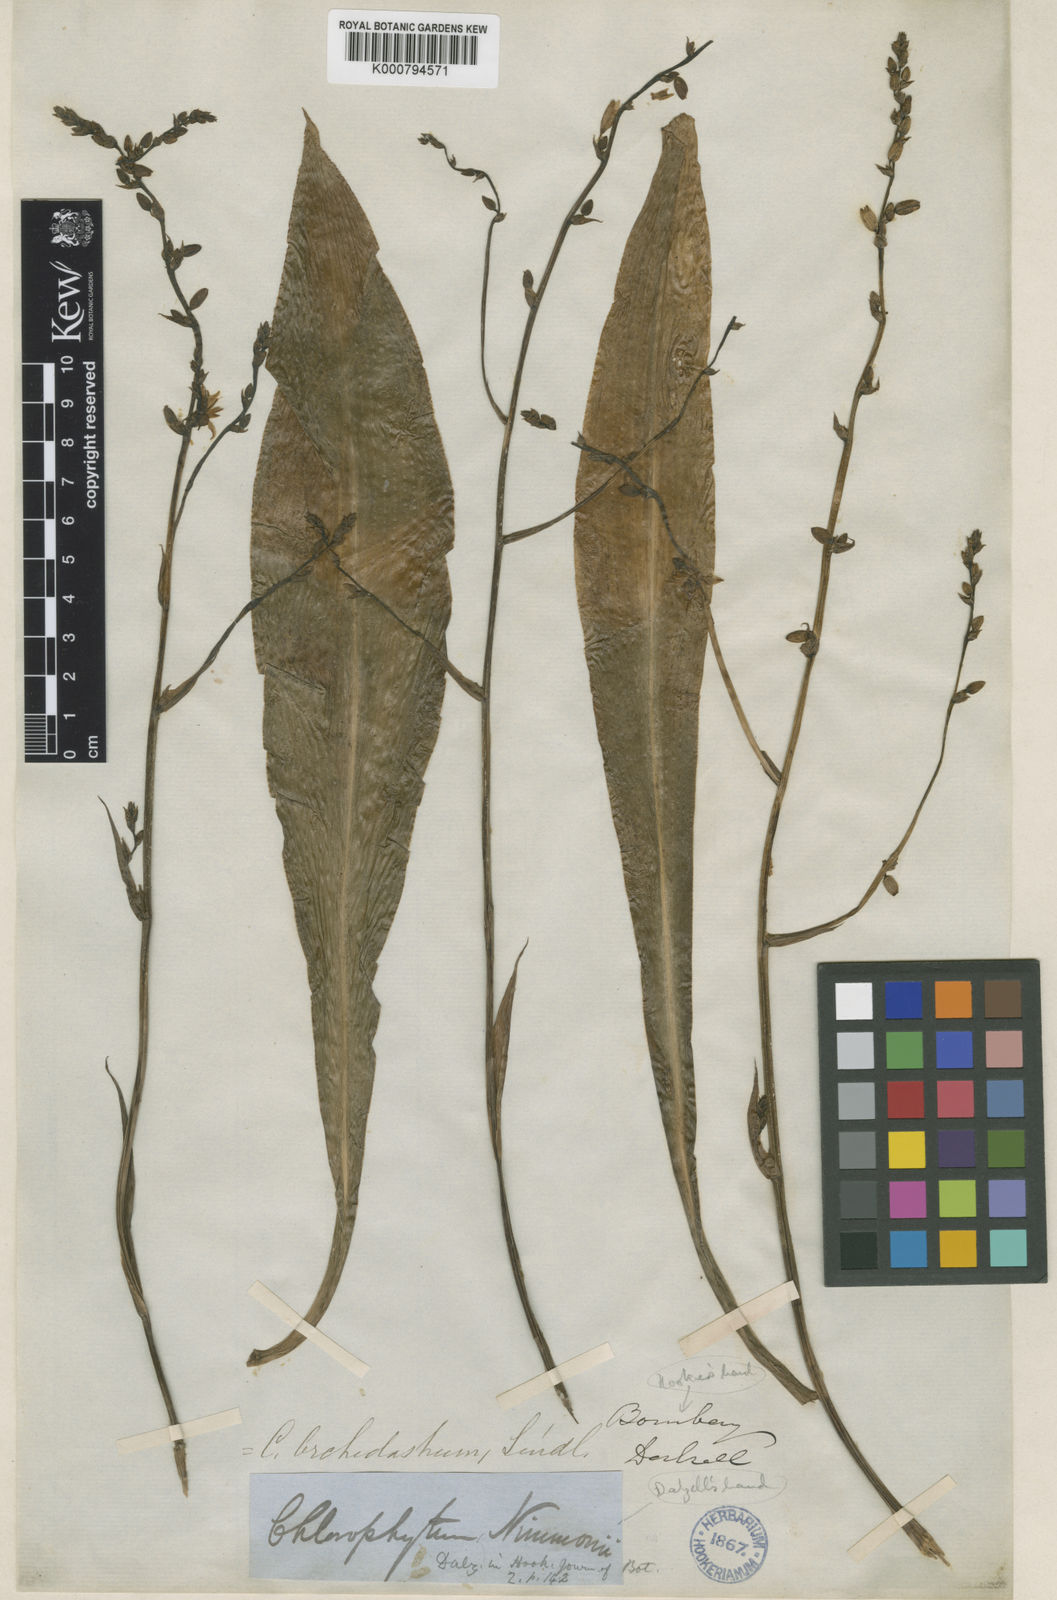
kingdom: Plantae
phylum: Tracheophyta
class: Liliopsida
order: Asparagales
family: Asparagaceae
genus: Chlorophytum
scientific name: Chlorophytum nimmonii
